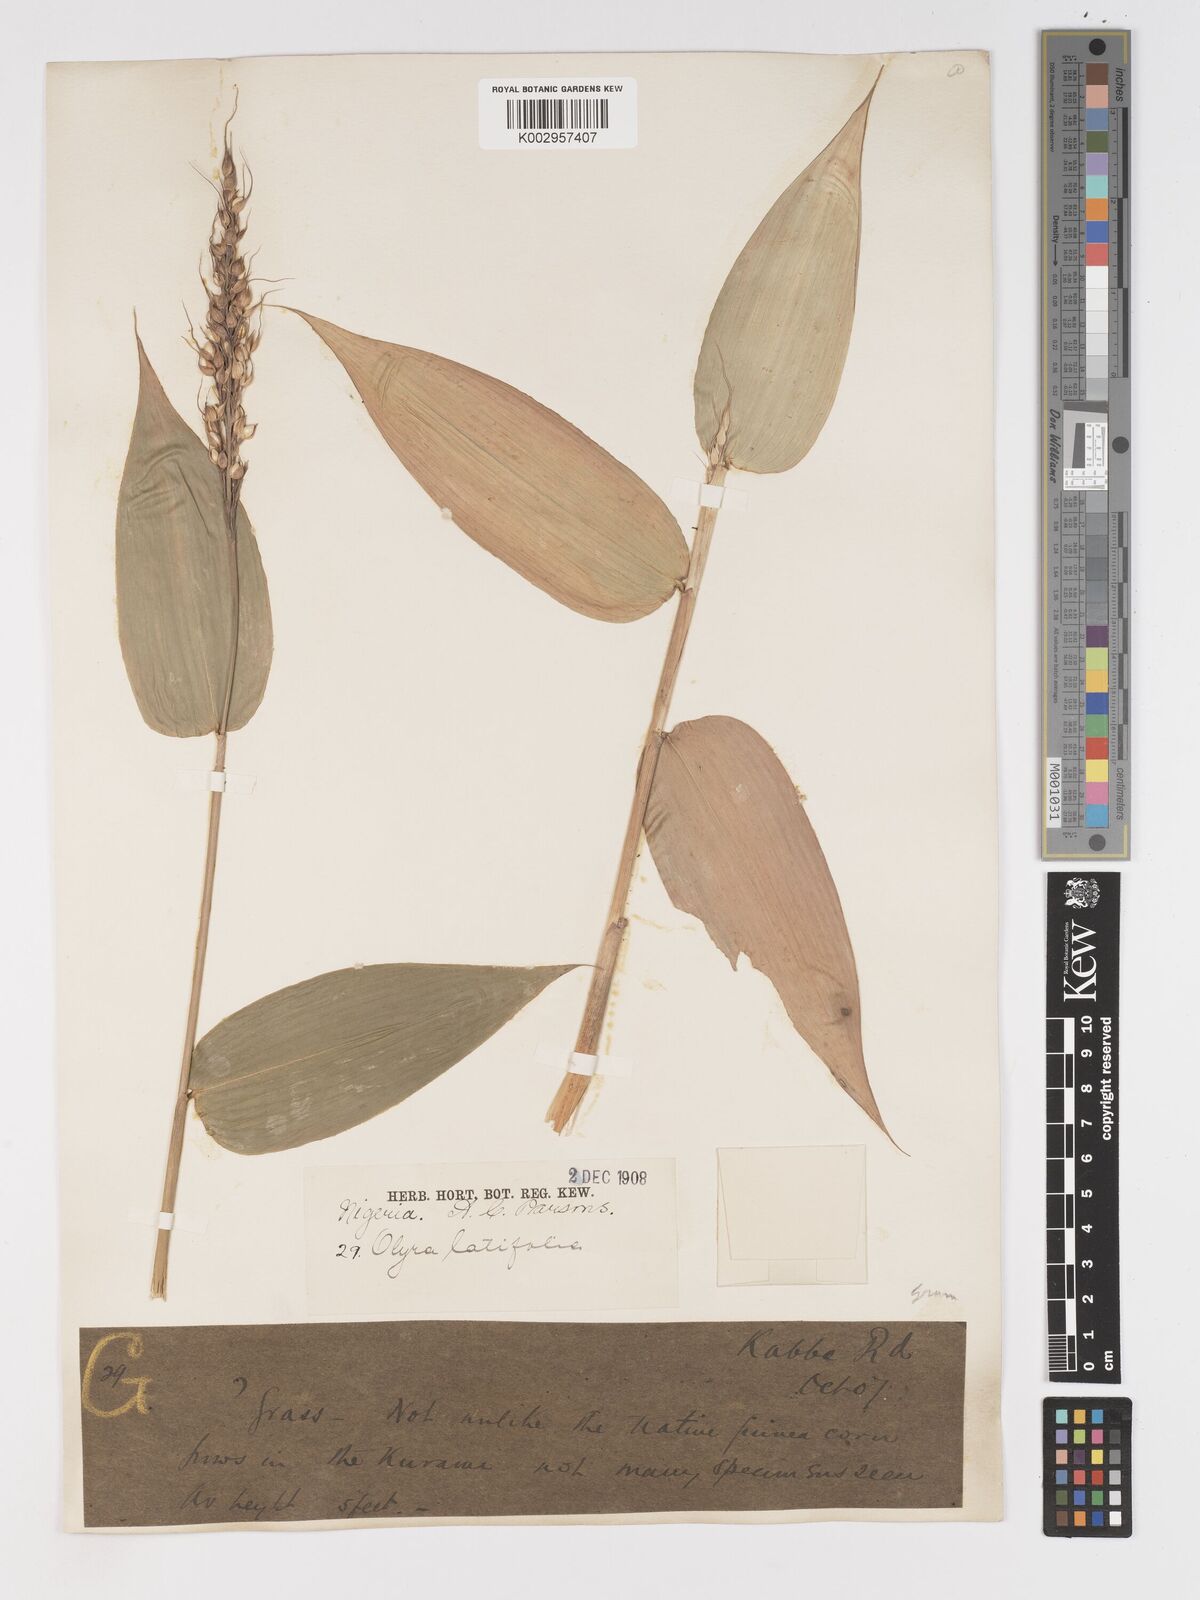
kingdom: Plantae
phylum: Tracheophyta
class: Liliopsida
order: Poales
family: Poaceae
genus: Olyra
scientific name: Olyra latifolia
